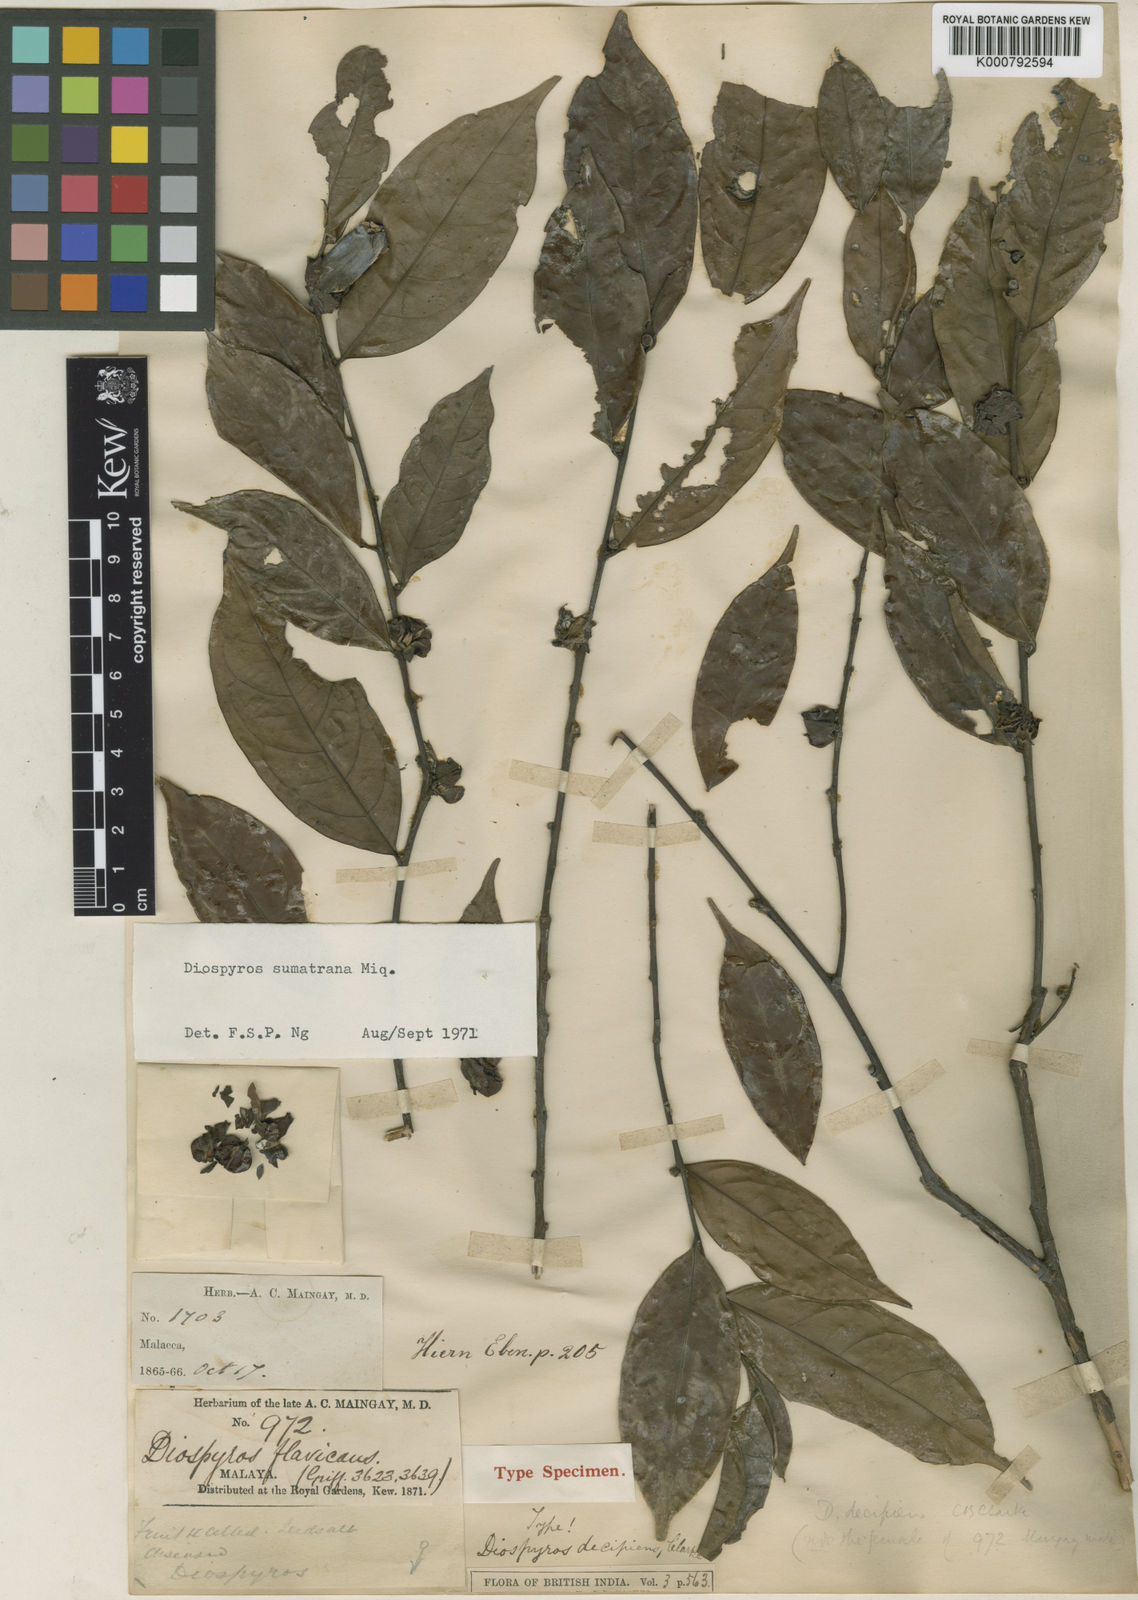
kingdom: Plantae
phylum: Tracheophyta
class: Magnoliopsida
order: Ericales
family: Ebenaceae
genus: Diospyros
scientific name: Diospyros sumatrana
